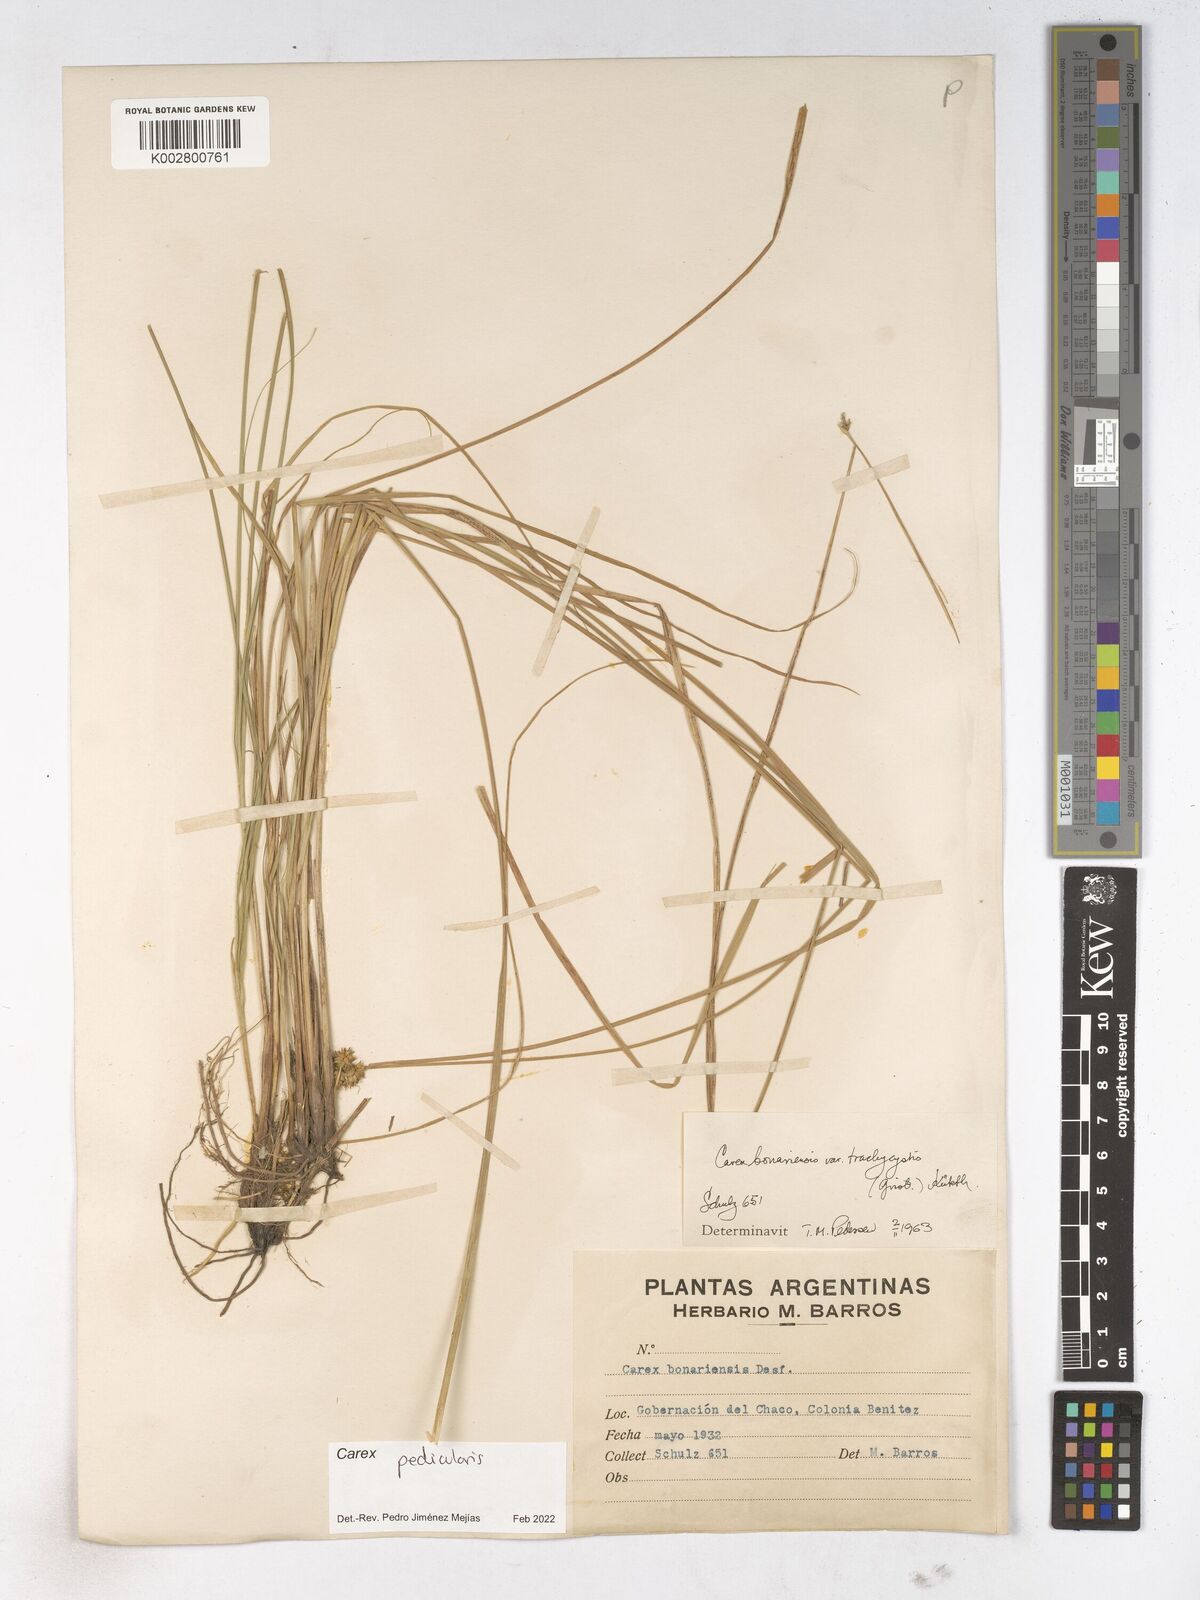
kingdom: Plantae
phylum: Tracheophyta
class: Liliopsida
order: Poales
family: Cyperaceae
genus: Carex
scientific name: Carex bonariensis
